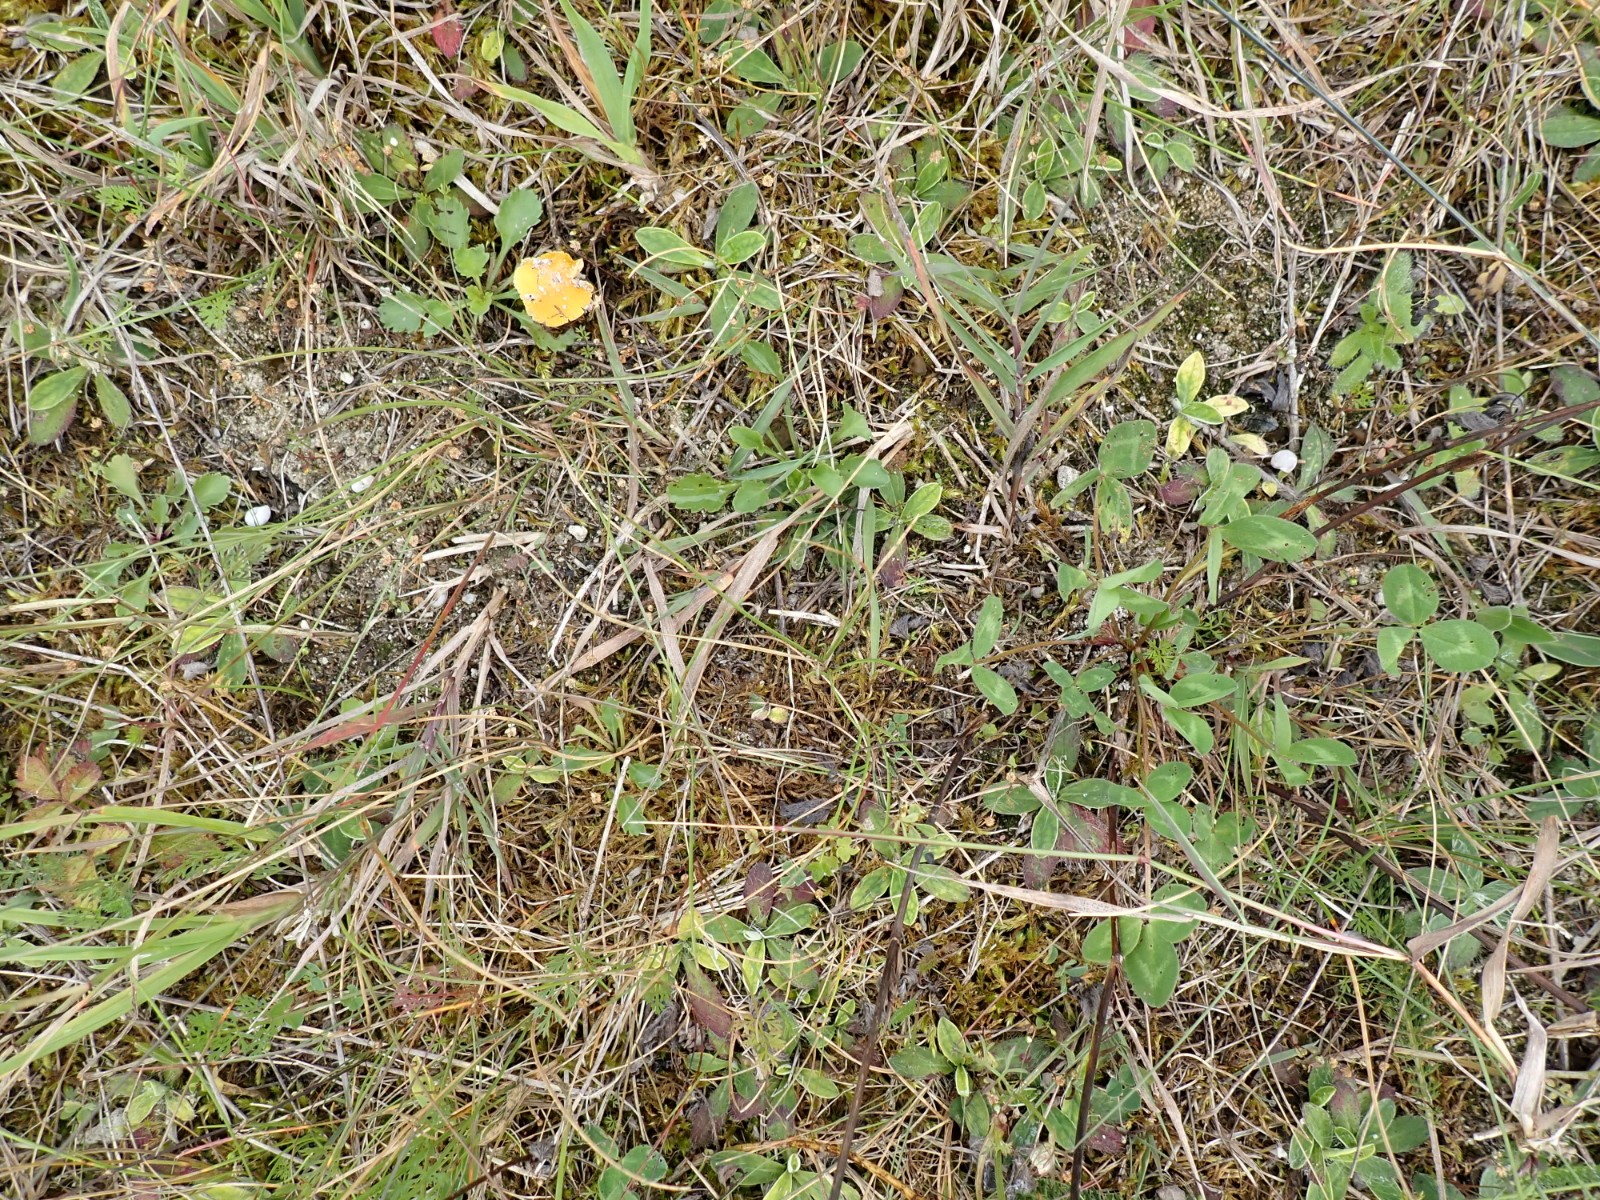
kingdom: Fungi
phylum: Basidiomycota
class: Agaricomycetes
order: Agaricales
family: Hygrophoraceae
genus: Hygrocybe
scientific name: Hygrocybe acutoconica
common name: Konrads vokshat
